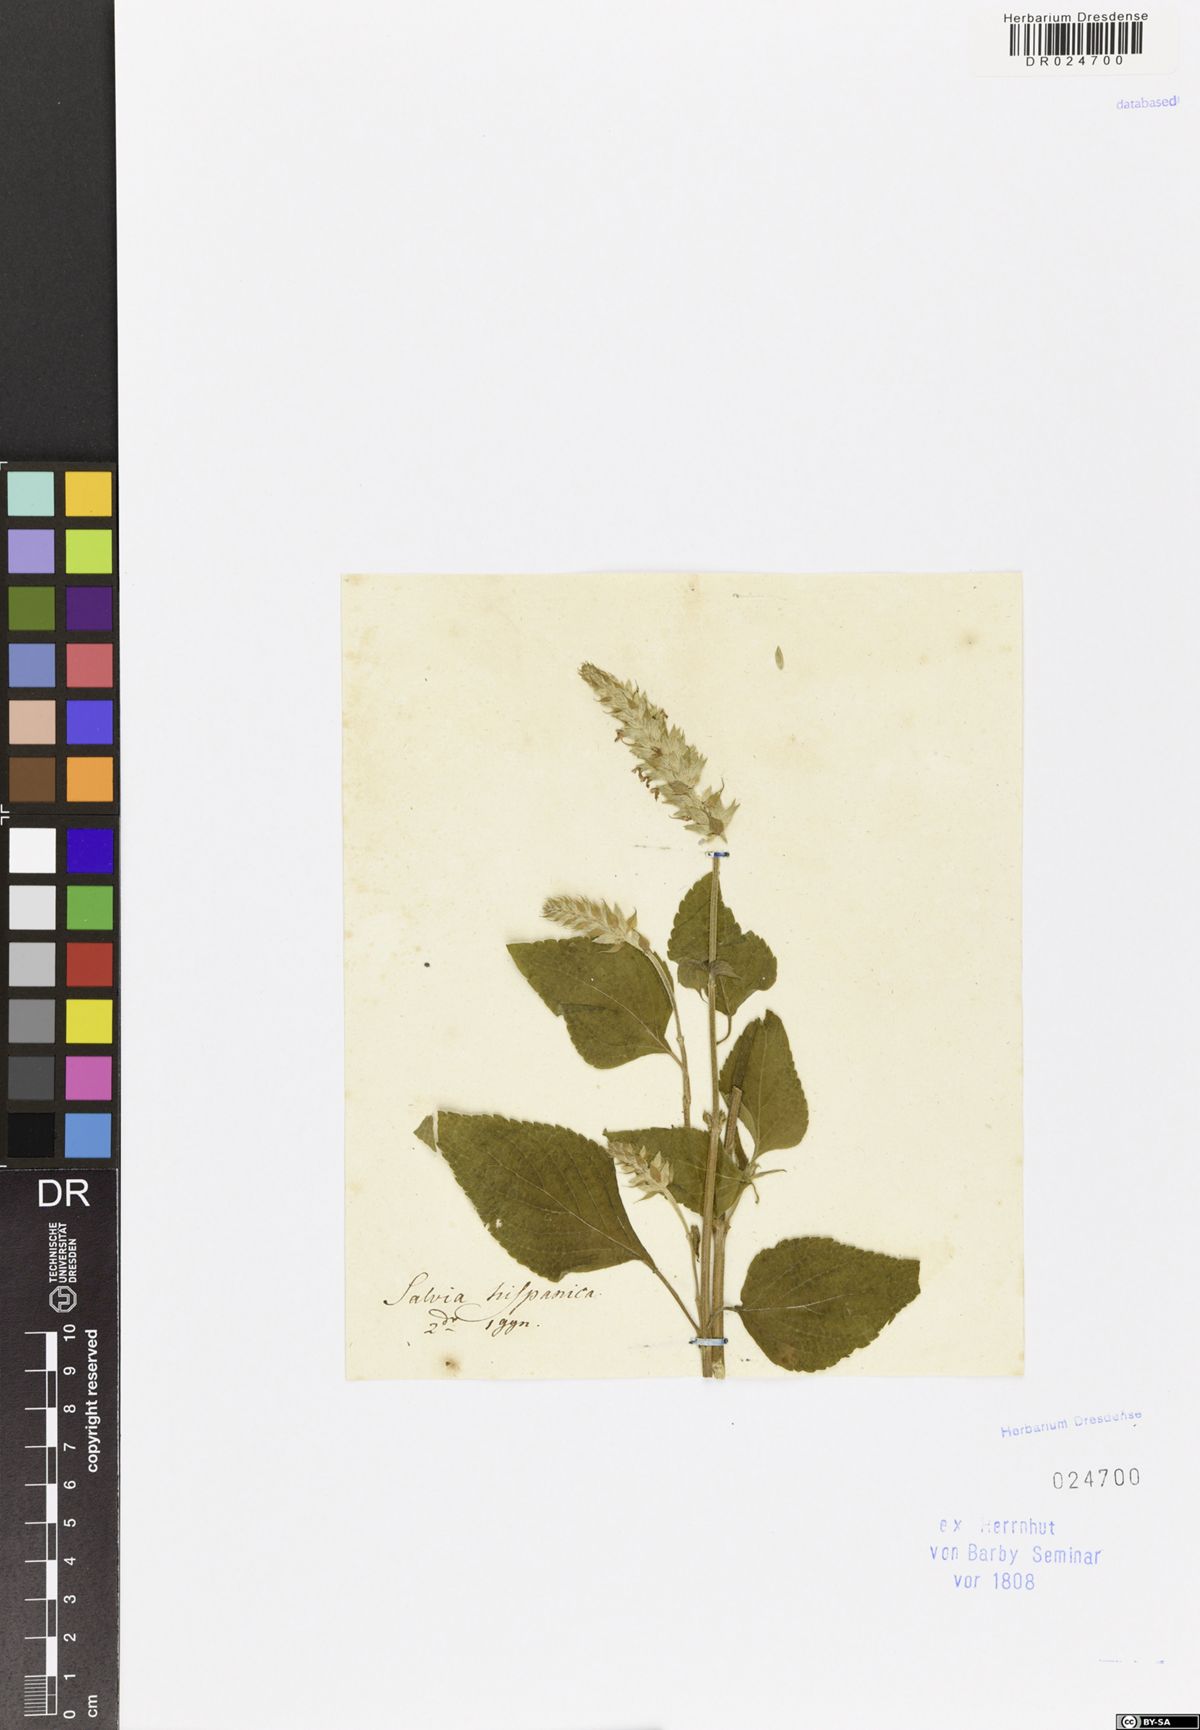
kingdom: Plantae
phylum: Tracheophyta
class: Magnoliopsida
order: Lamiales
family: Lamiaceae
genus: Salvia
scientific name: Salvia hispanica
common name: Chia
